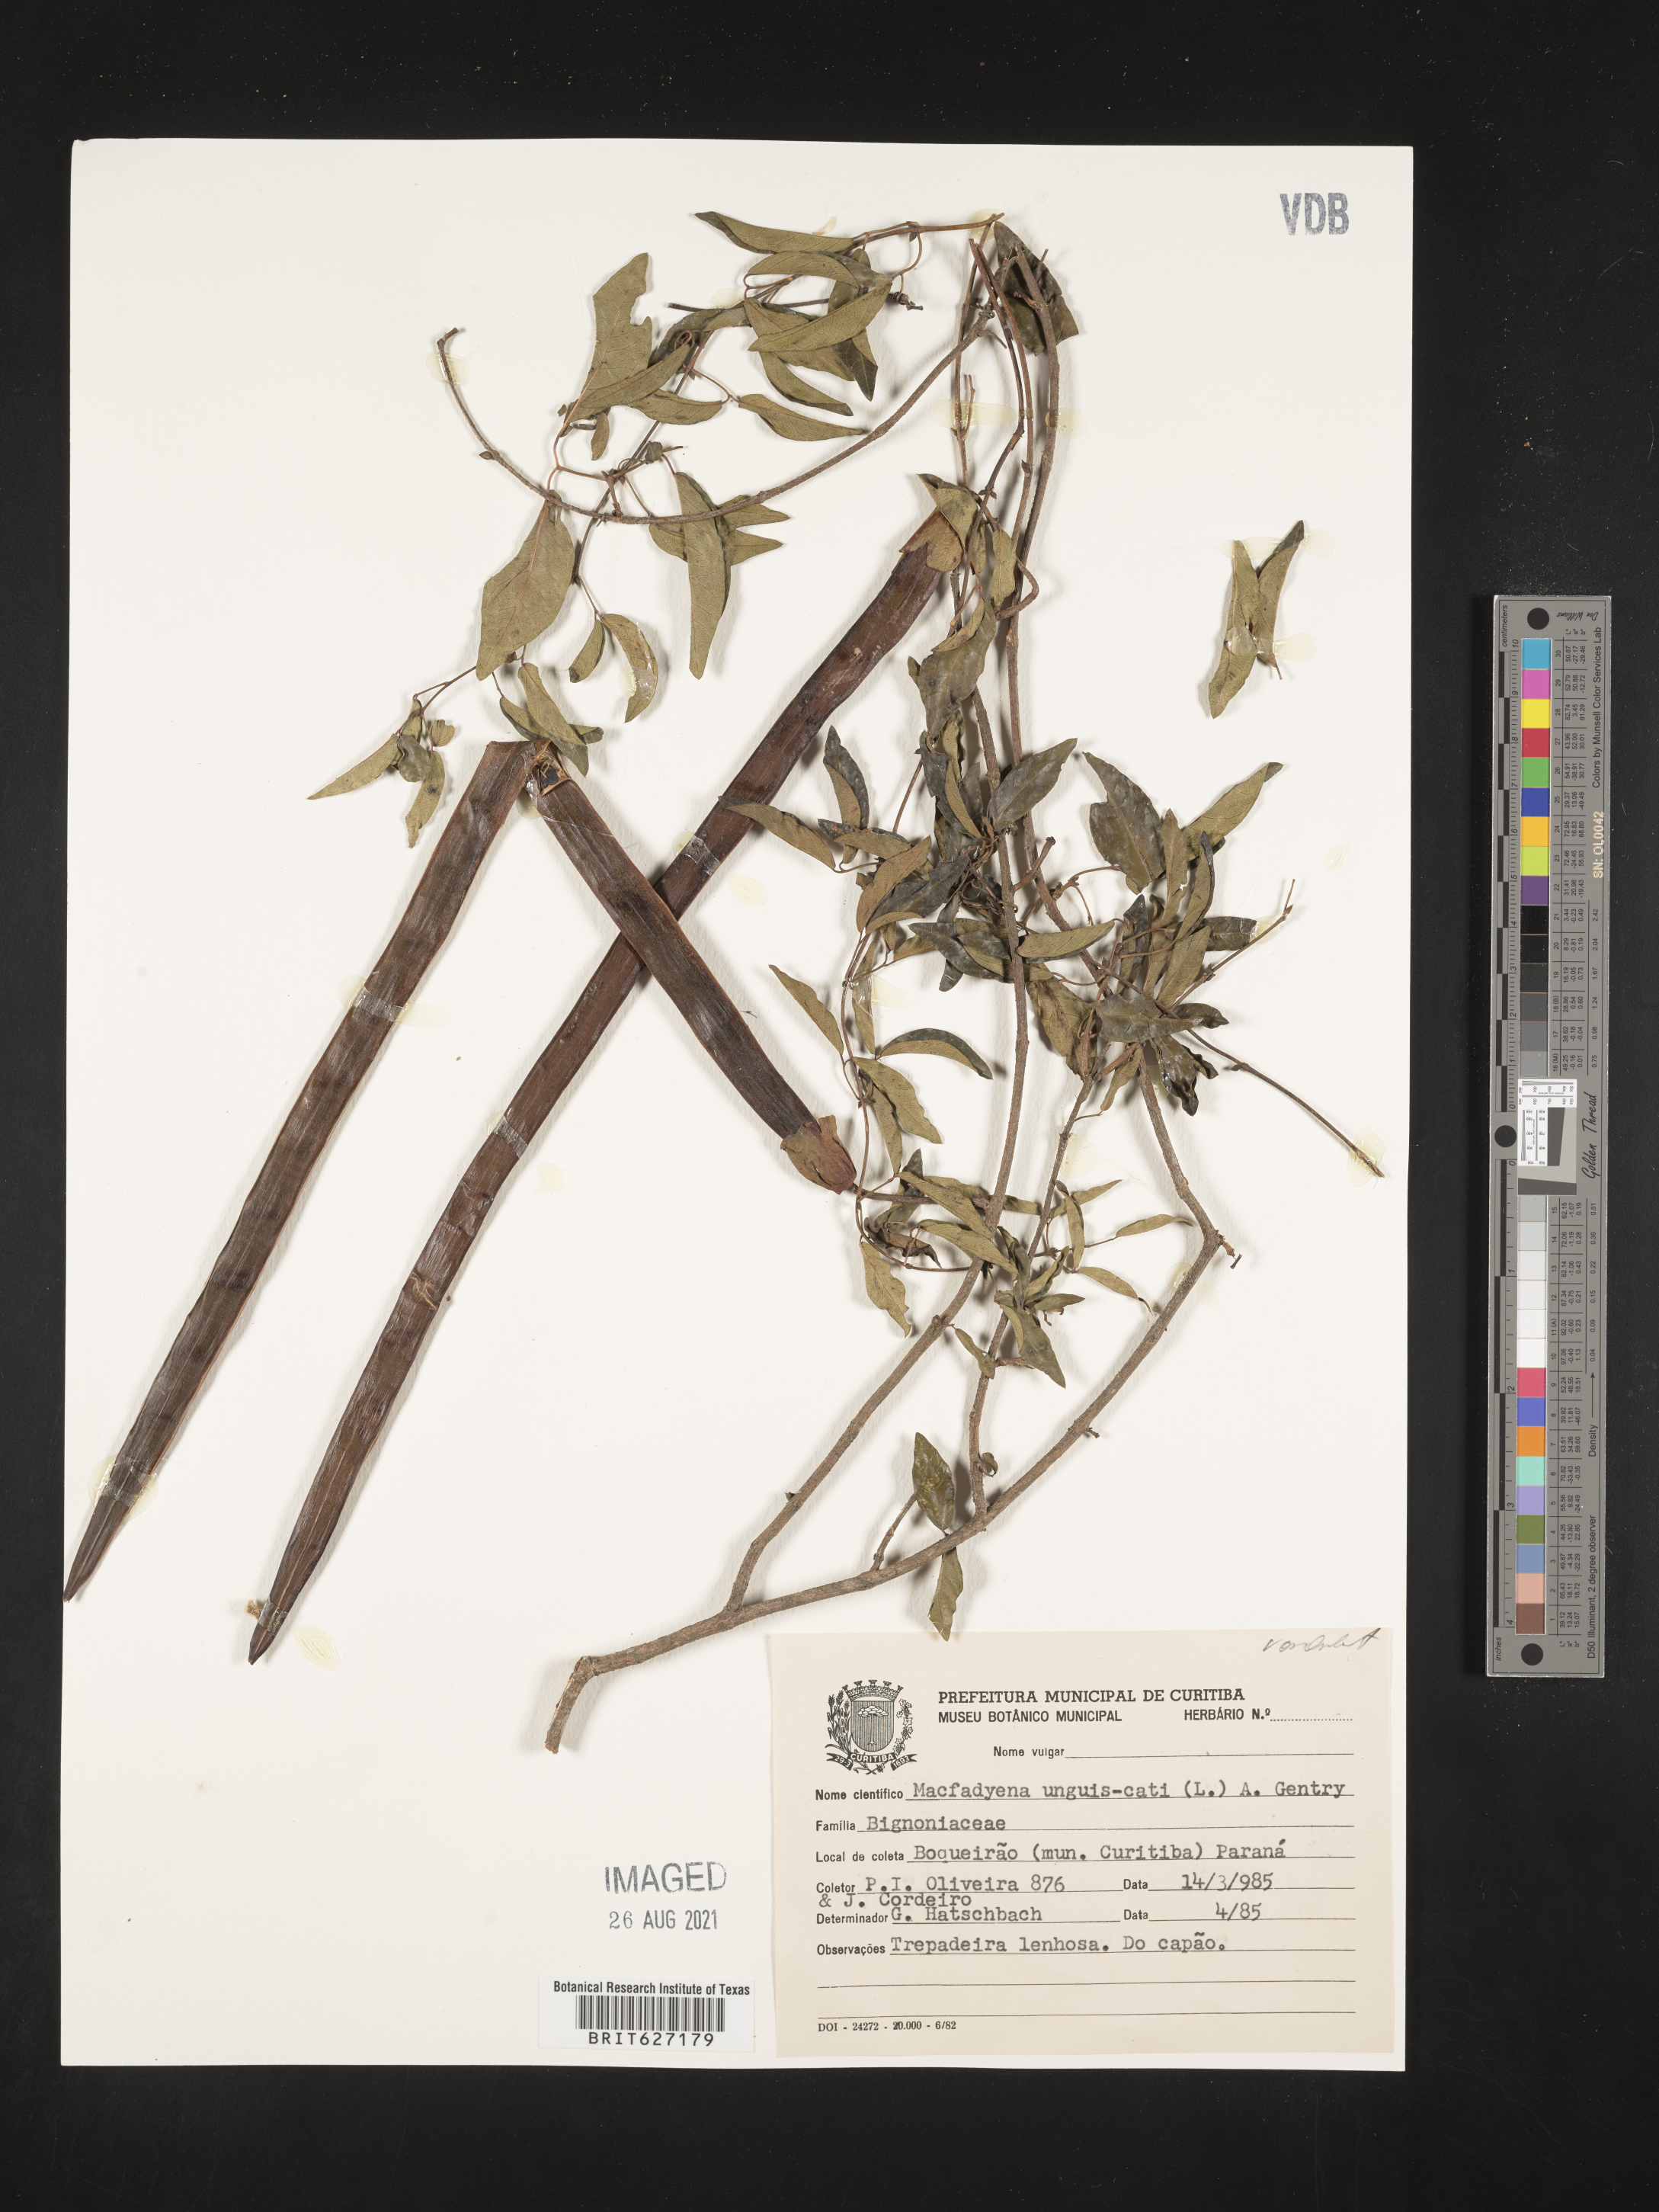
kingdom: Plantae
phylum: Tracheophyta
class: Magnoliopsida
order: Lamiales
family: Bignoniaceae
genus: Dolichandra
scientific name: Dolichandra unguis-cati
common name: Catclaw vine
